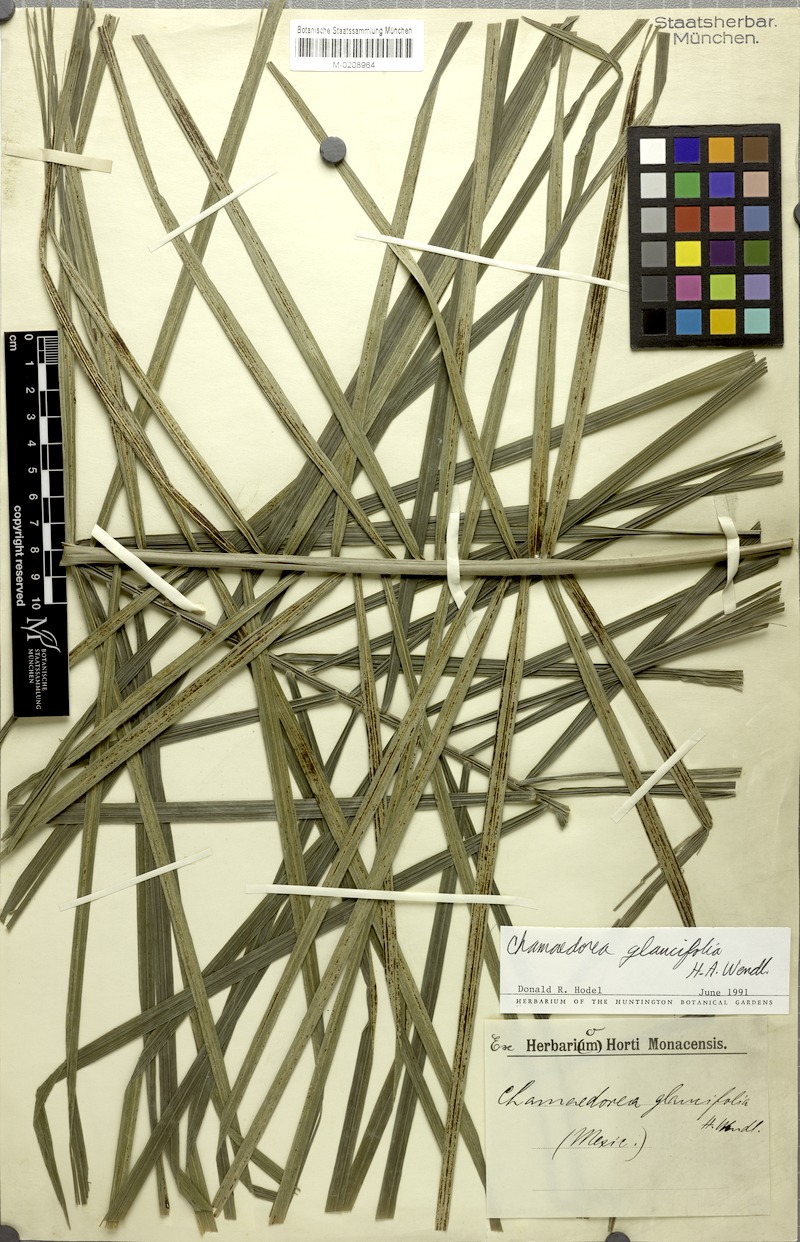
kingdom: Plantae
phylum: Tracheophyta
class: Liliopsida
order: Arecales
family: Arecaceae
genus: Chamaedorea
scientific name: Chamaedorea glaucifolia
